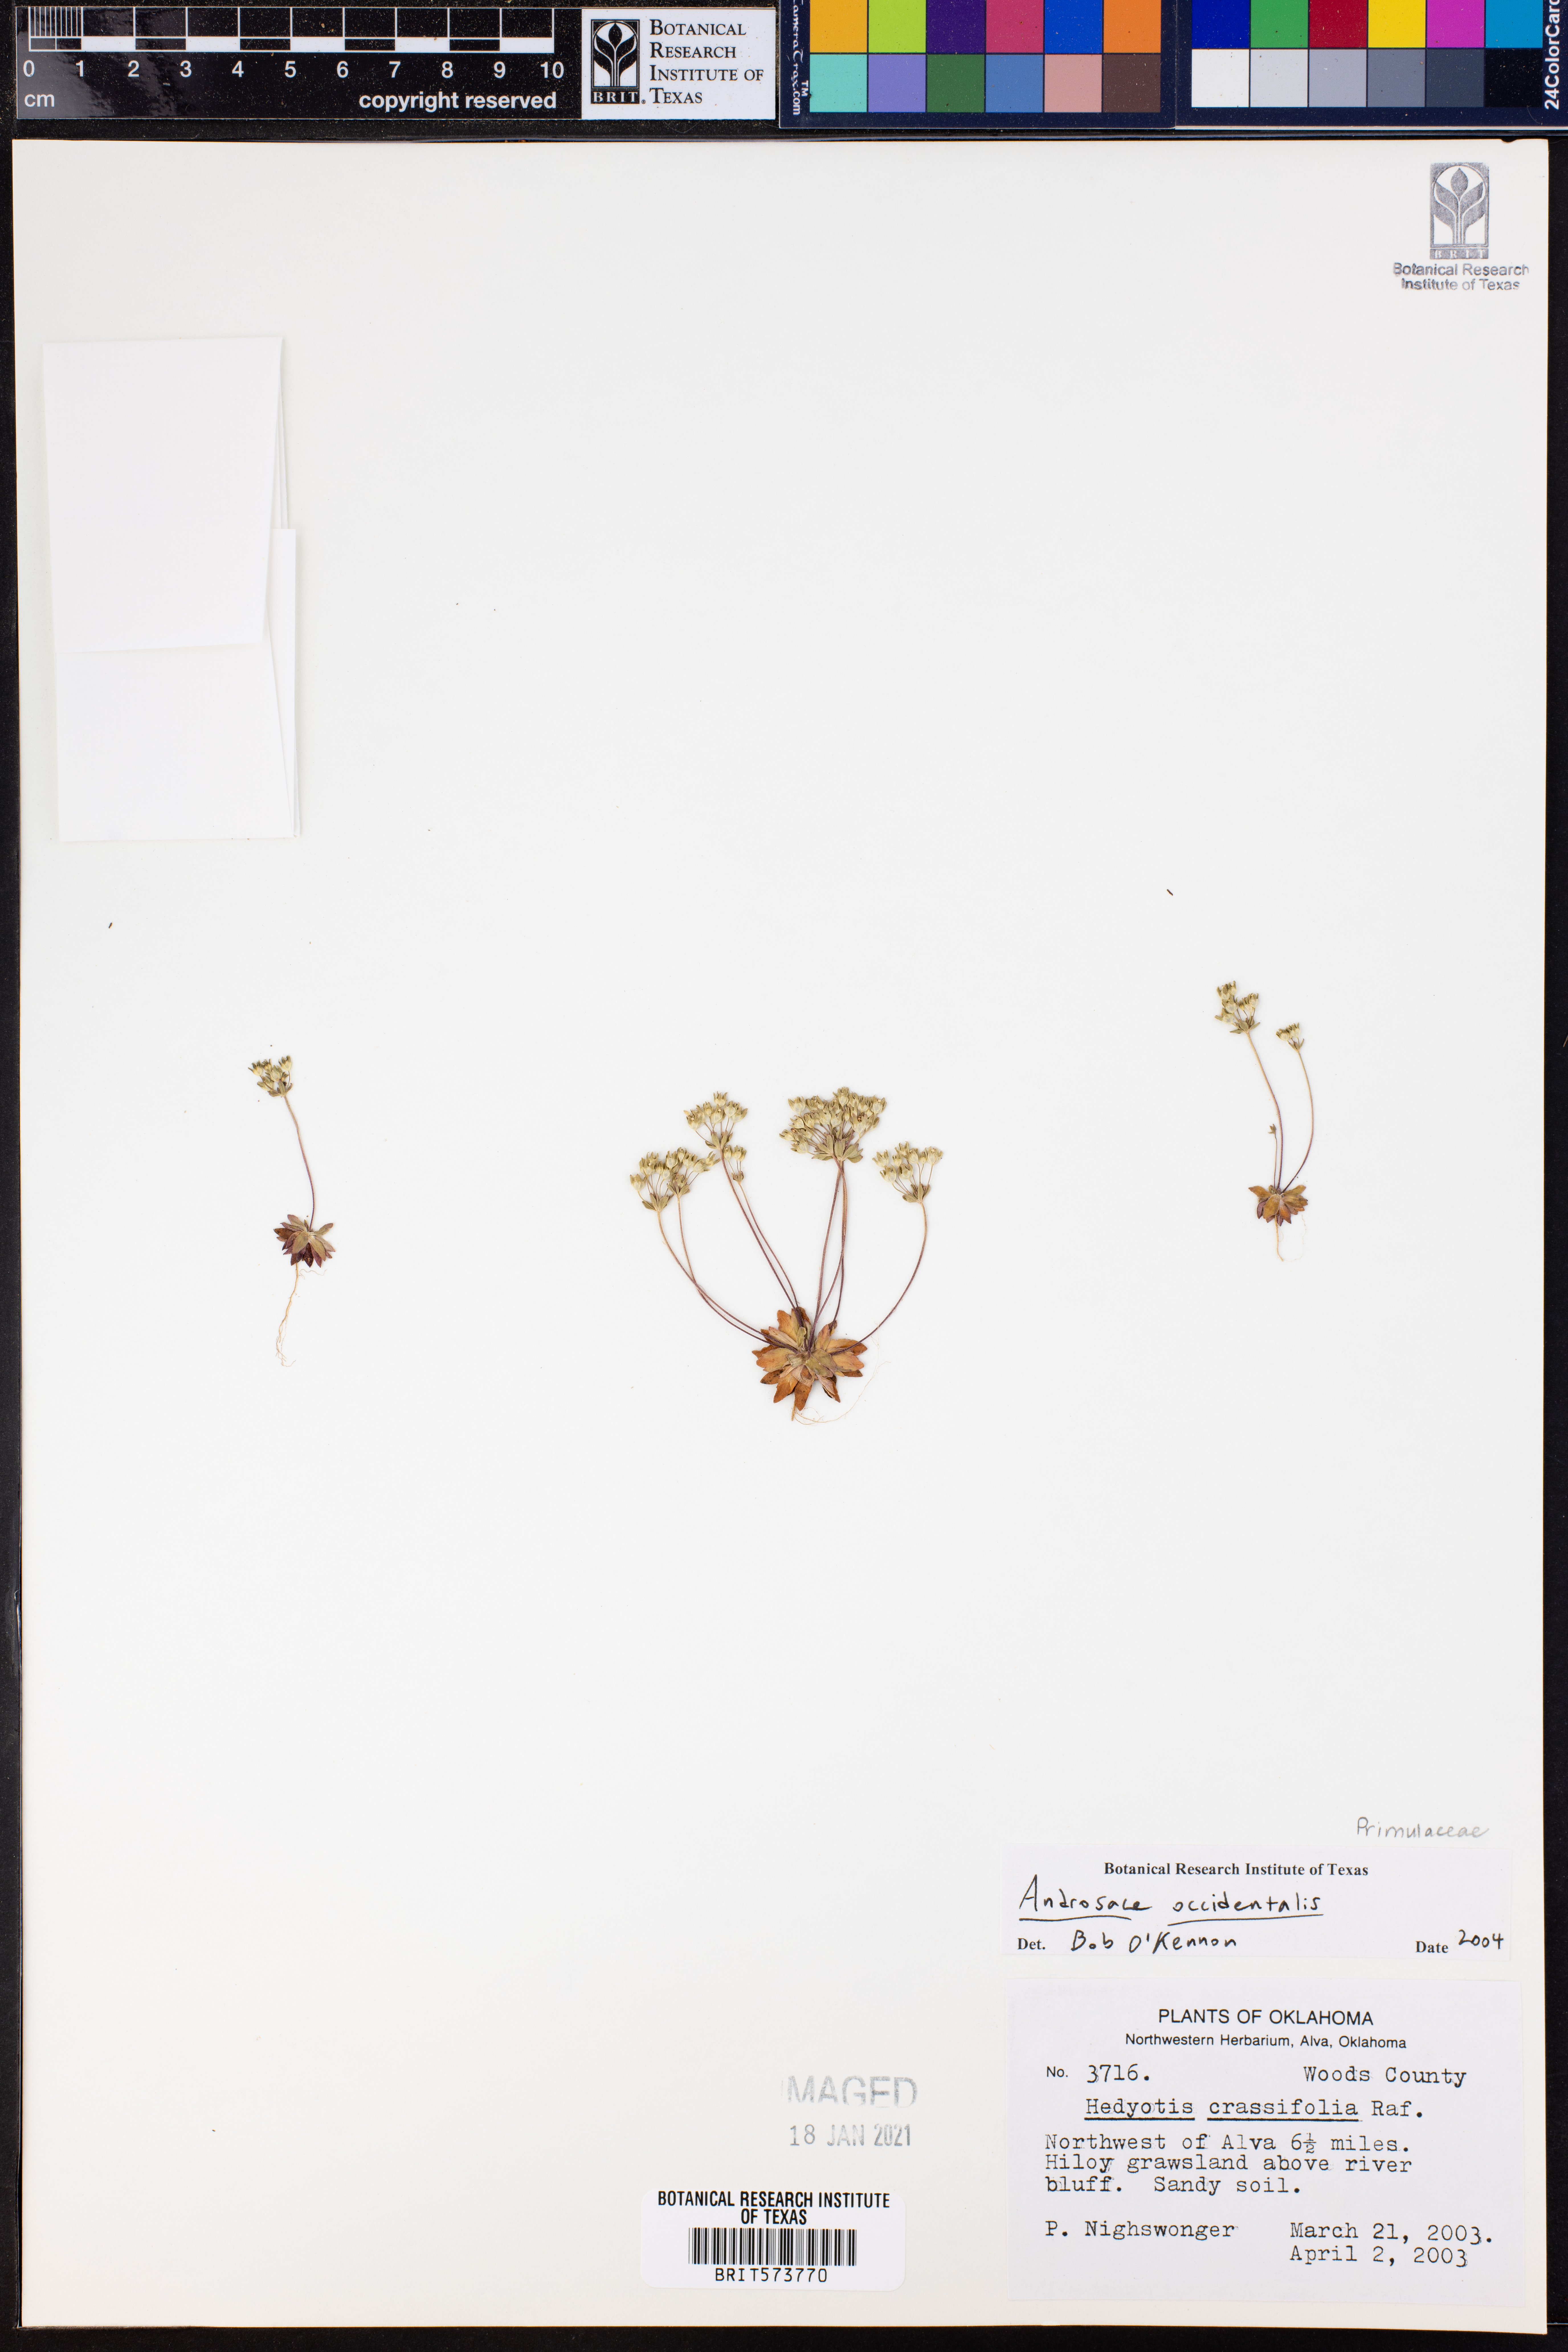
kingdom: Plantae
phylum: Tracheophyta
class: Magnoliopsida
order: Ericales
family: Primulaceae
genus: Androsace
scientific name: Androsace occidentalis
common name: West rock-jasmine
